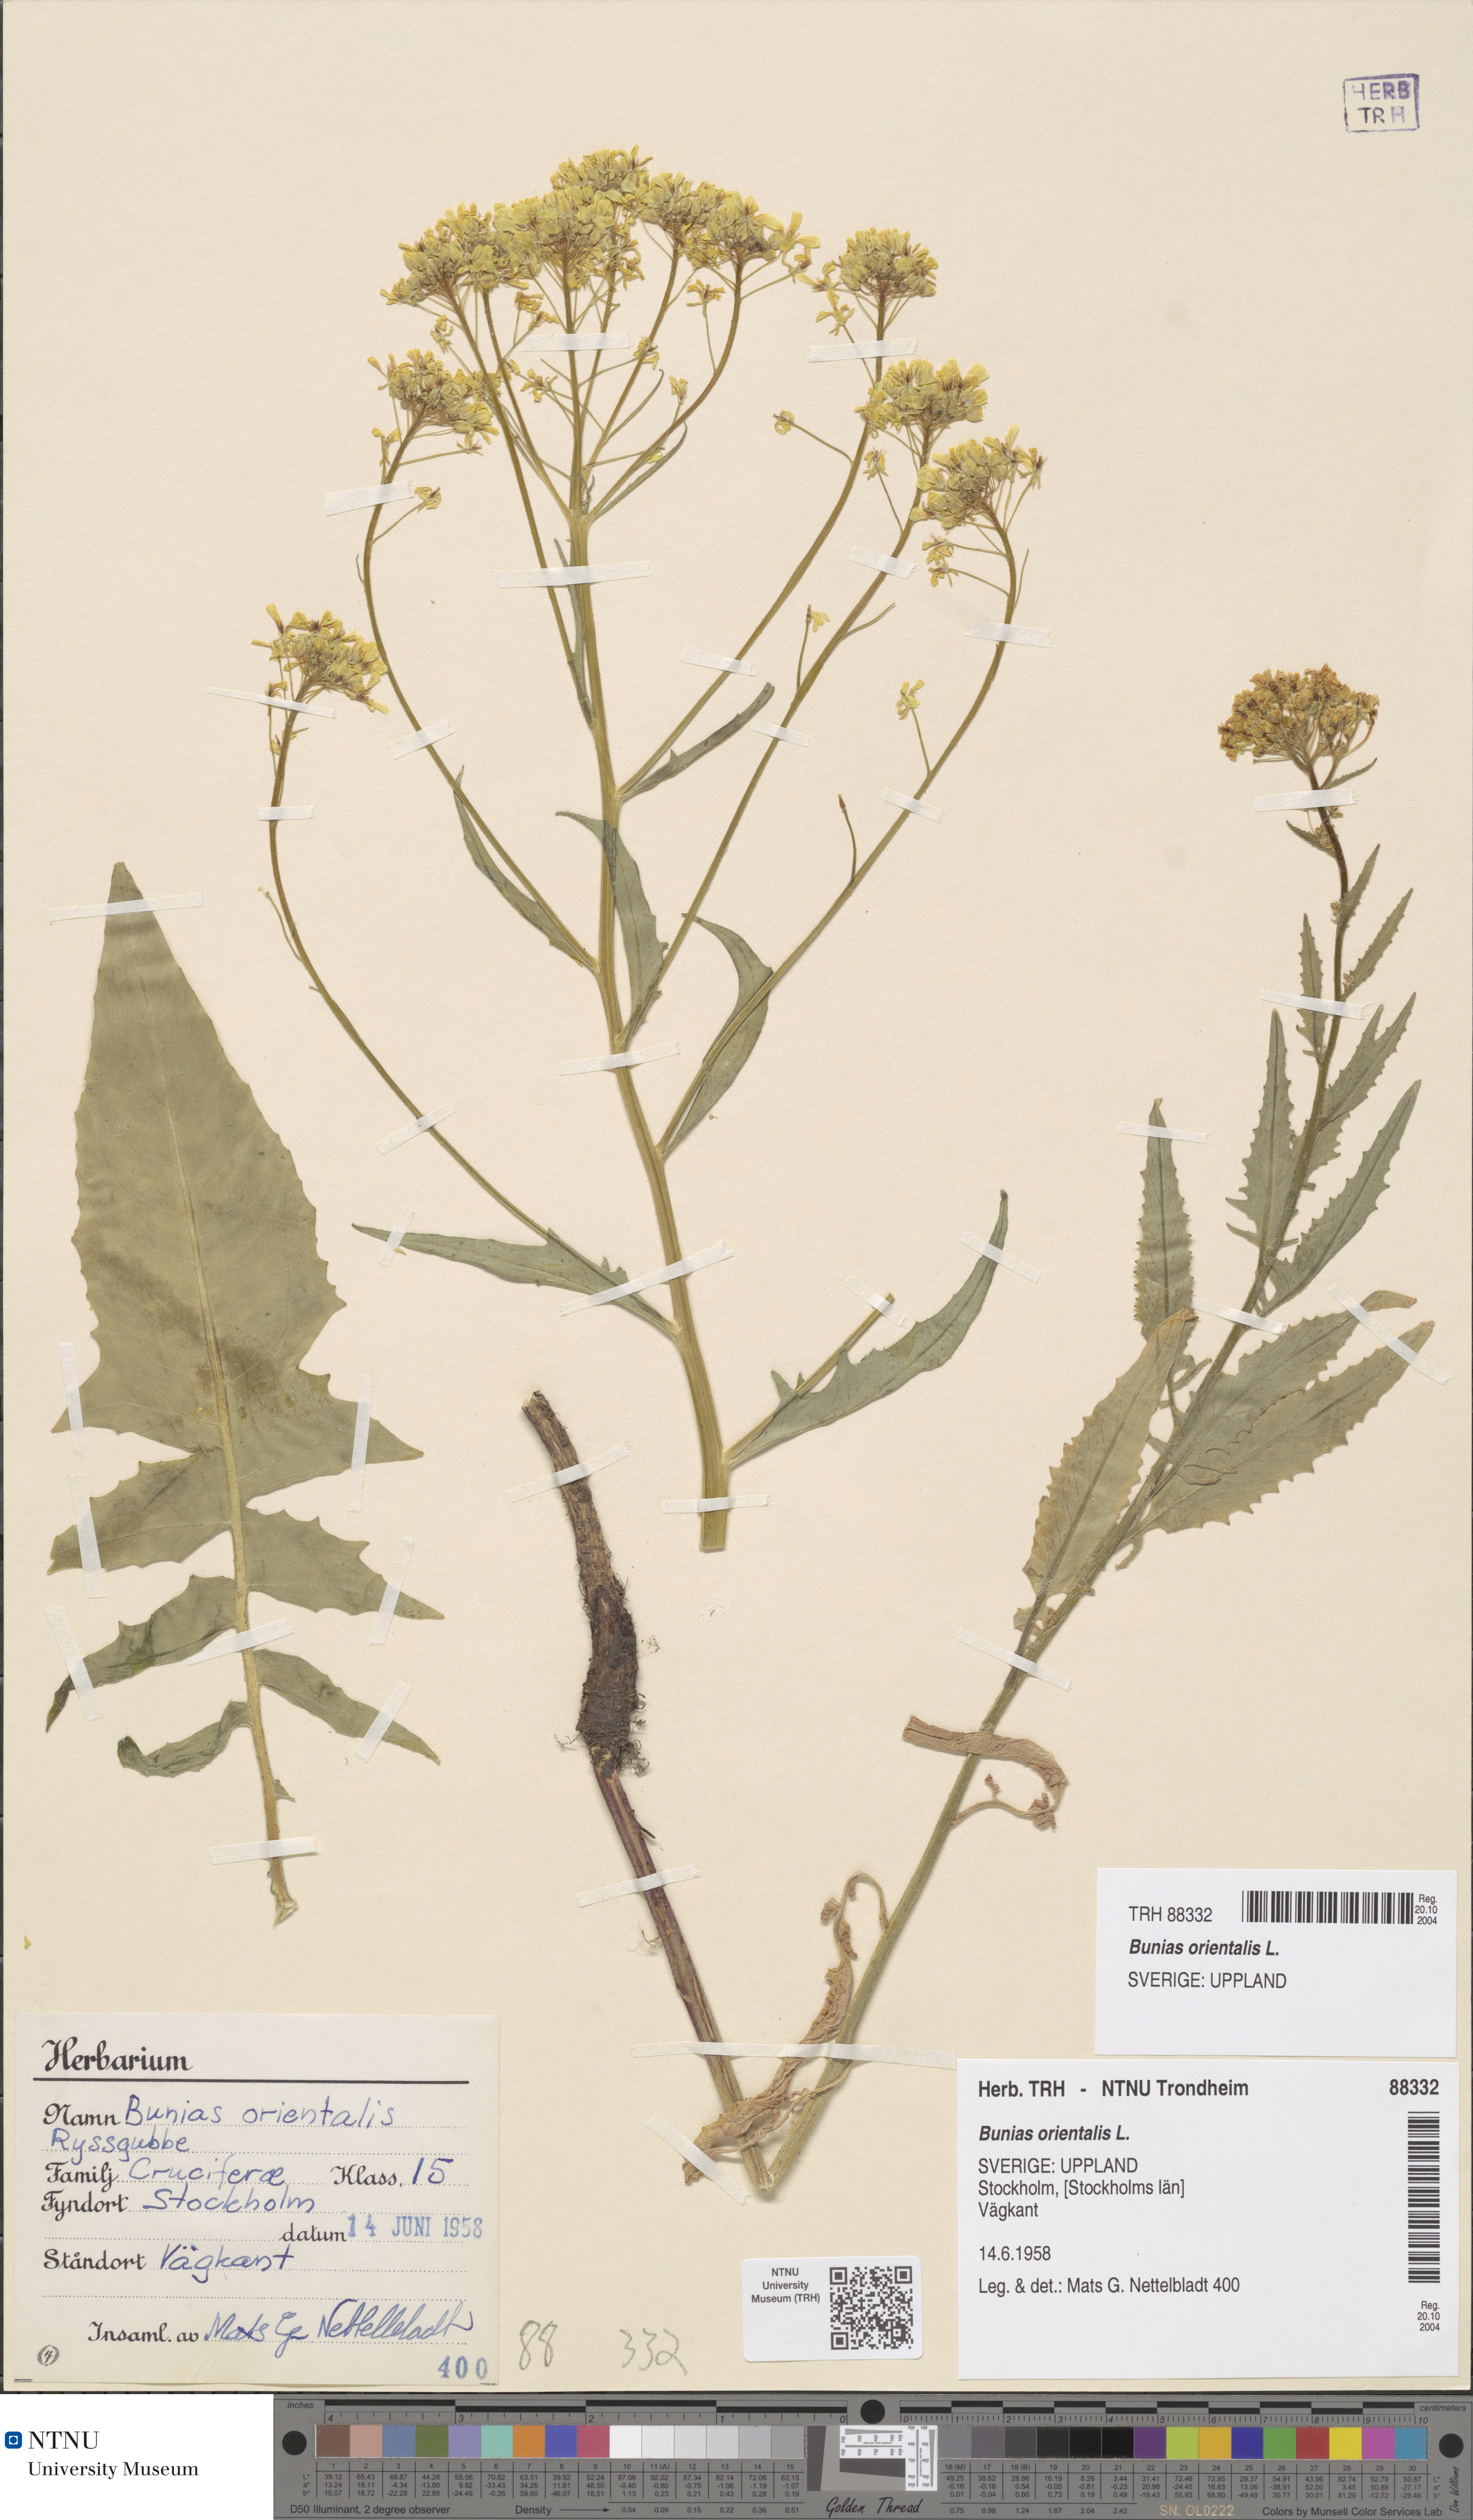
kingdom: Plantae
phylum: Tracheophyta
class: Magnoliopsida
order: Brassicales
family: Brassicaceae
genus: Bunias
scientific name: Bunias orientalis
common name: Warty-cabbage
